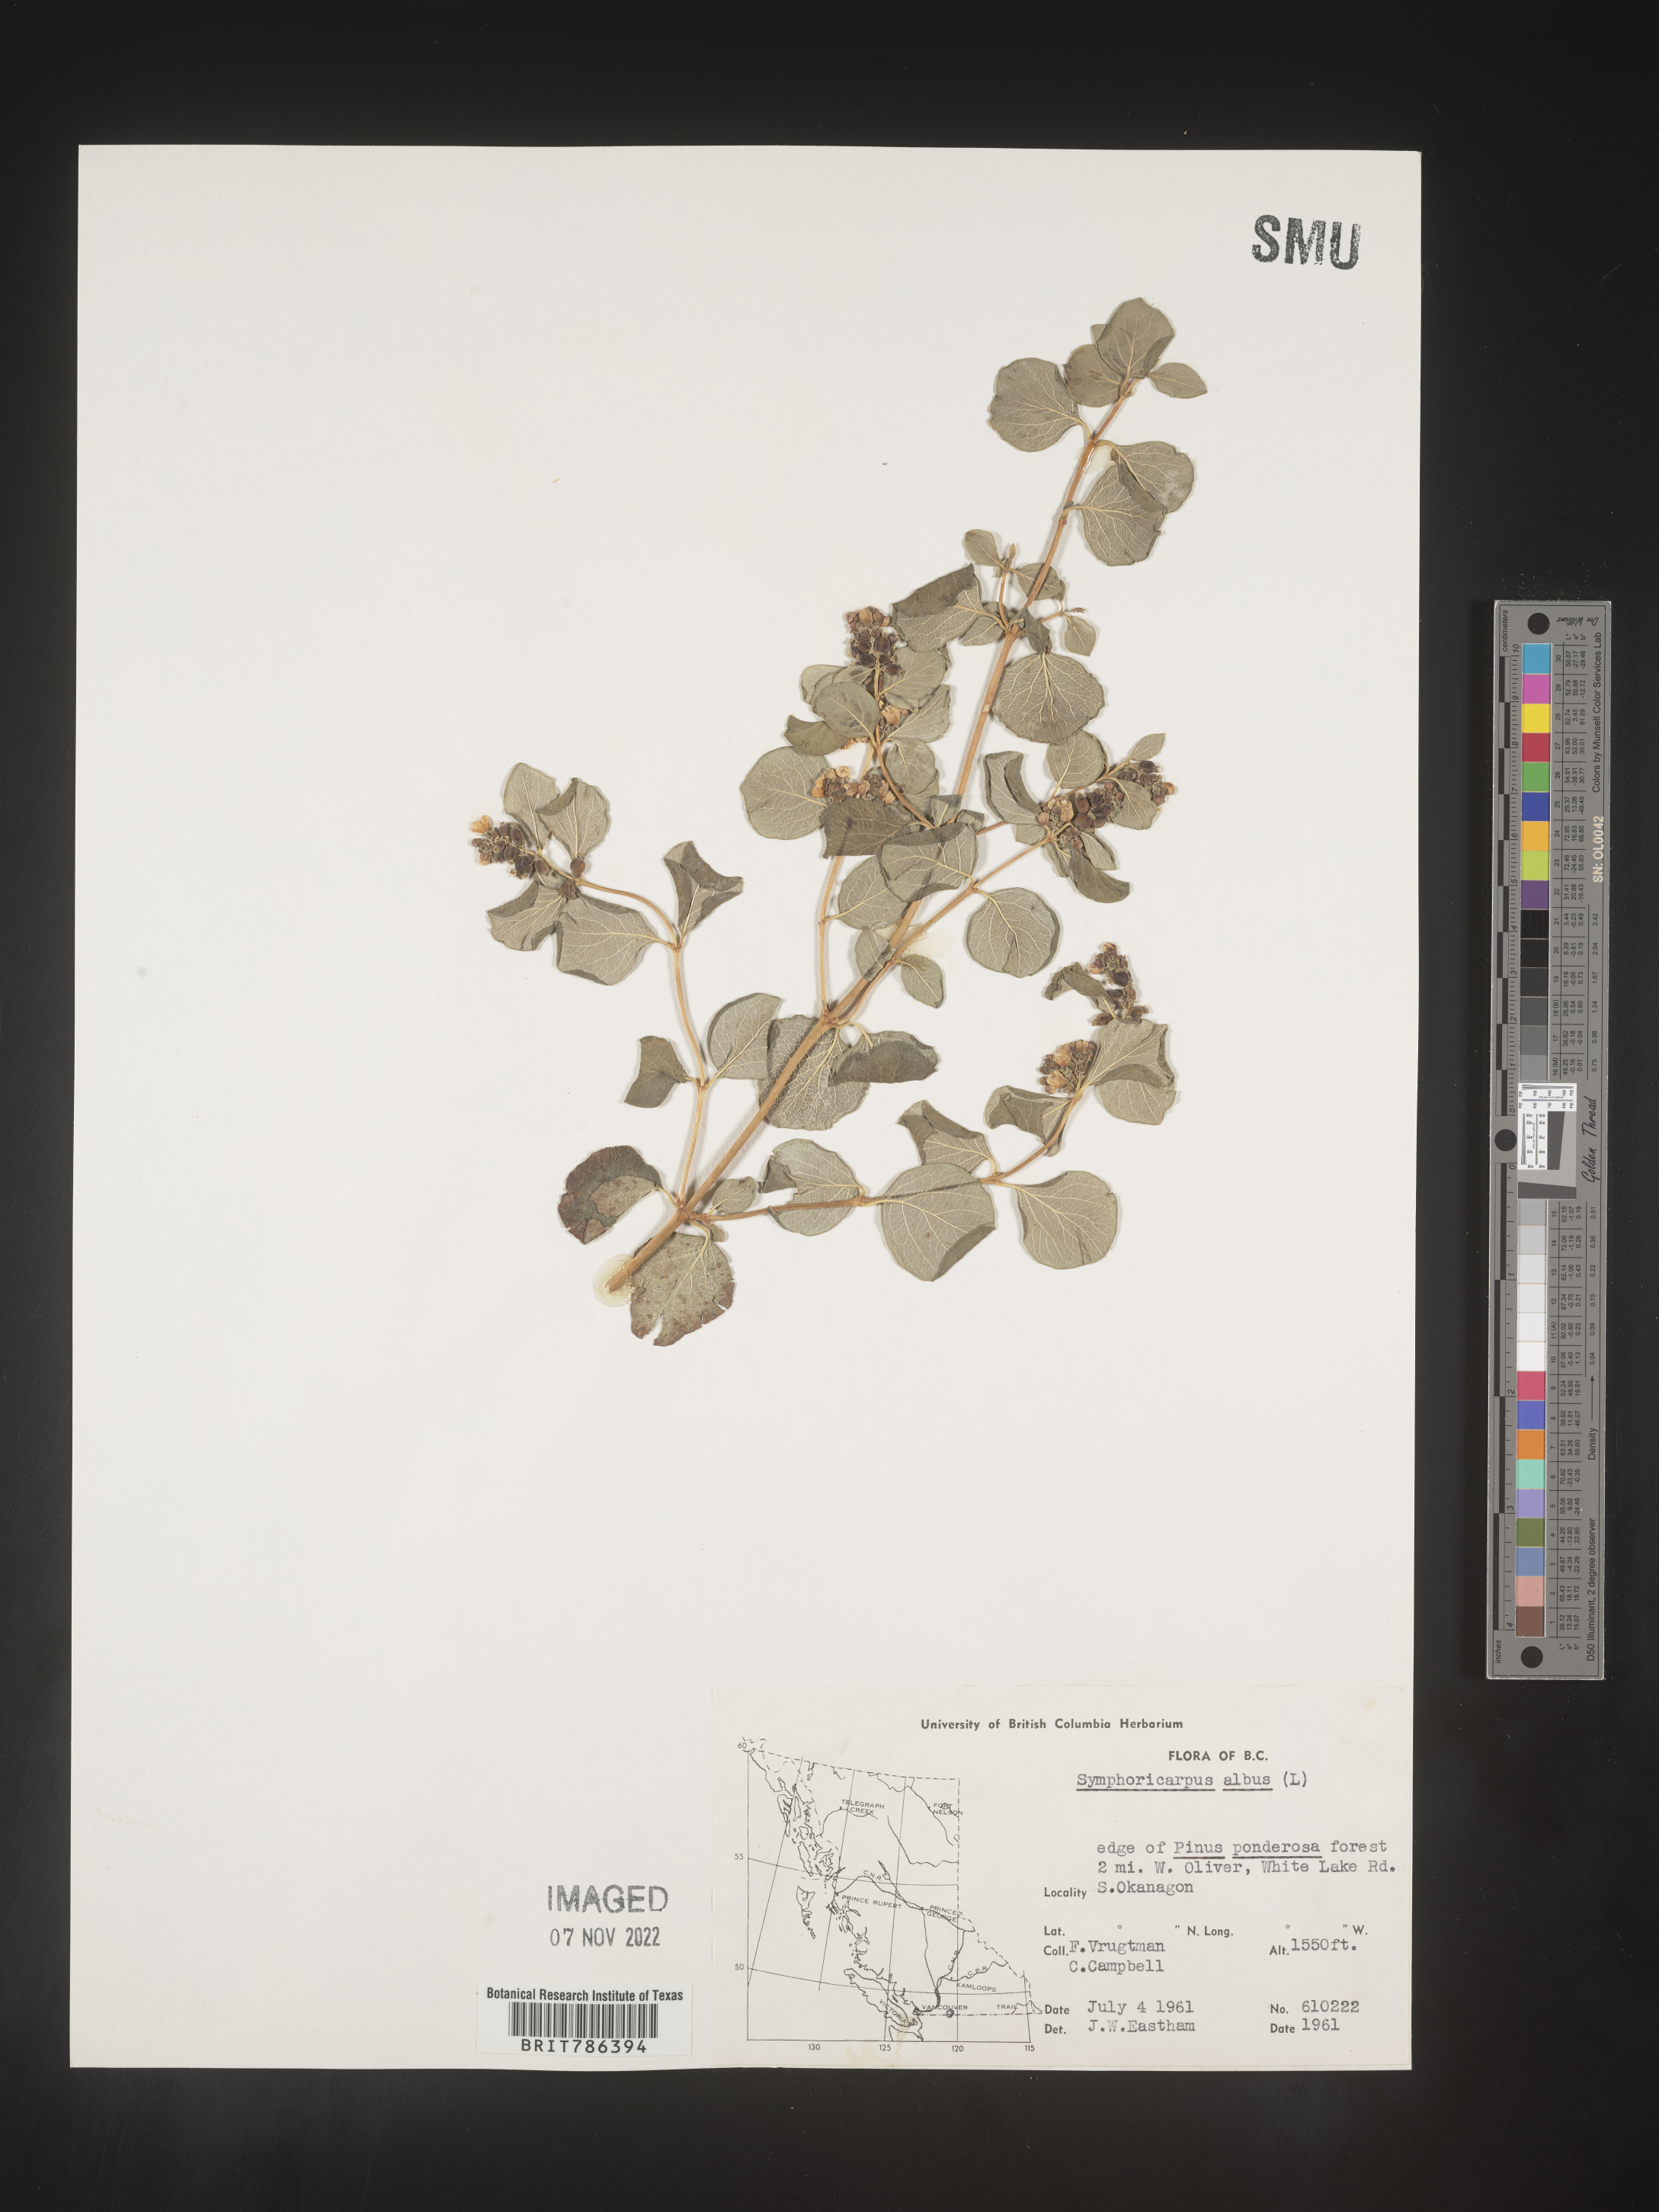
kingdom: Plantae
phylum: Tracheophyta
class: Magnoliopsida
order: Dipsacales
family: Caprifoliaceae
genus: Symphoricarpos
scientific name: Symphoricarpos albus
